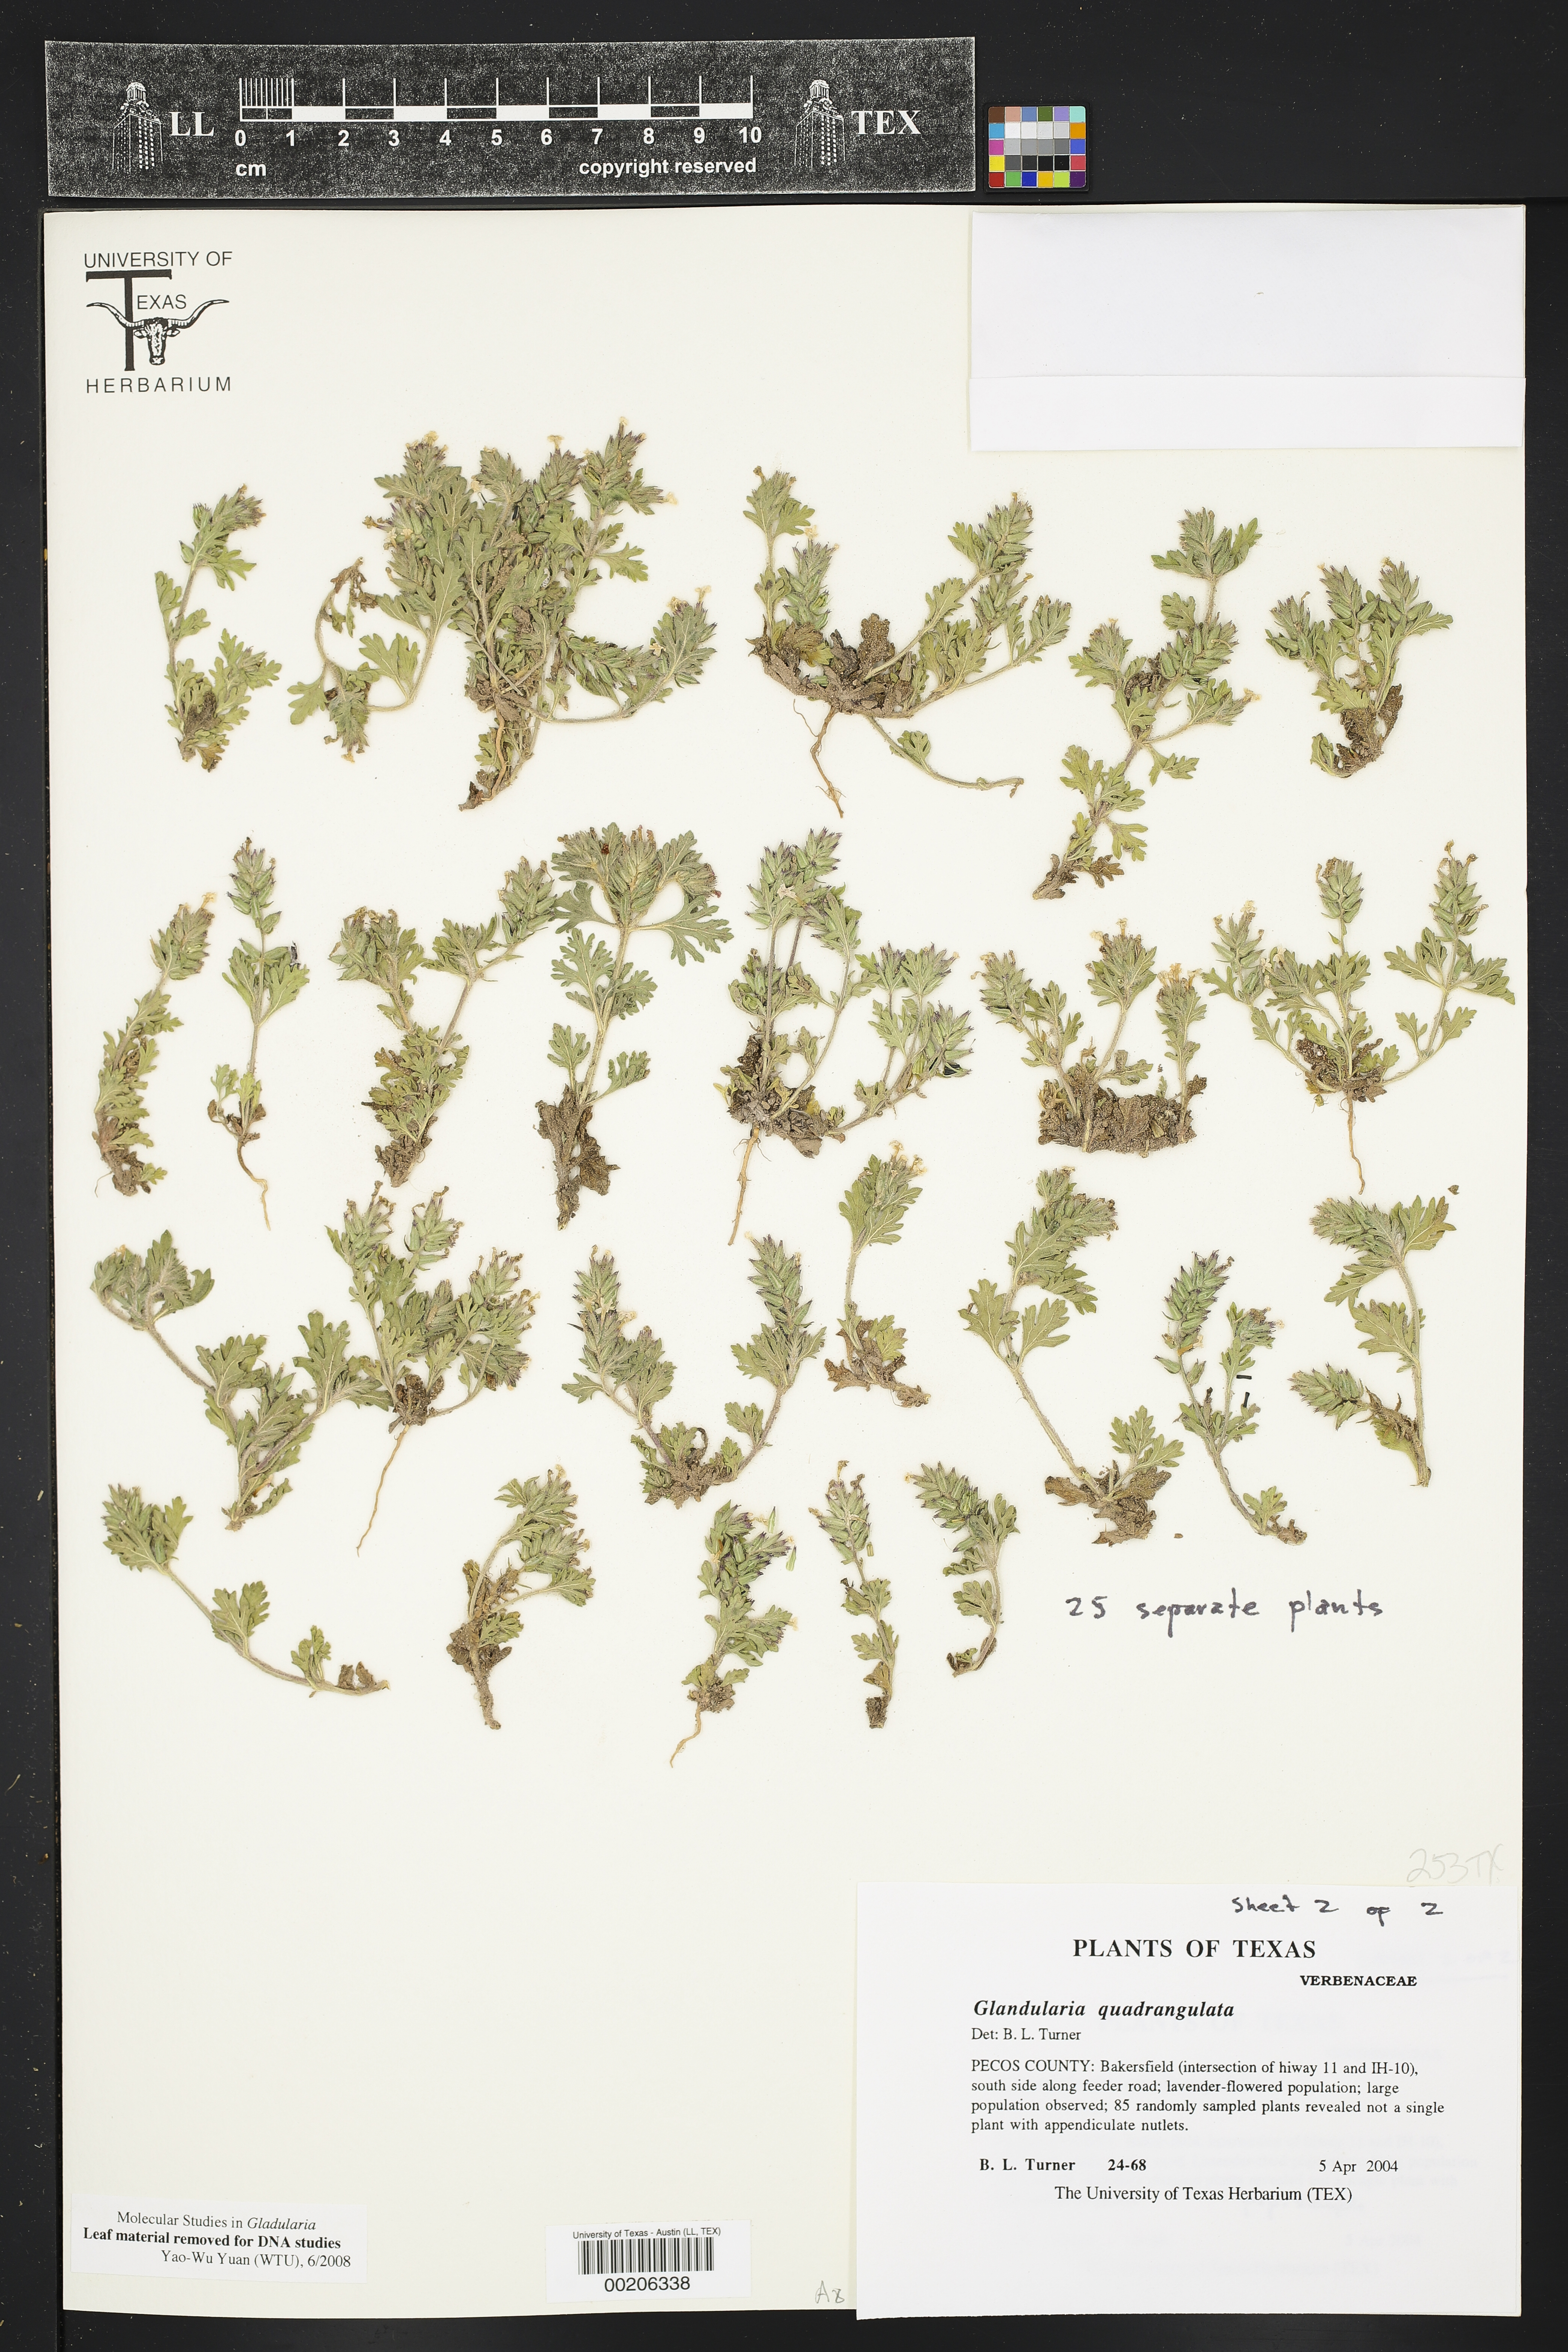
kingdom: Plantae
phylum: Tracheophyta
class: Magnoliopsida
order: Lamiales
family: Verbenaceae
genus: Verbena
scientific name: Verbena quadrangulata
